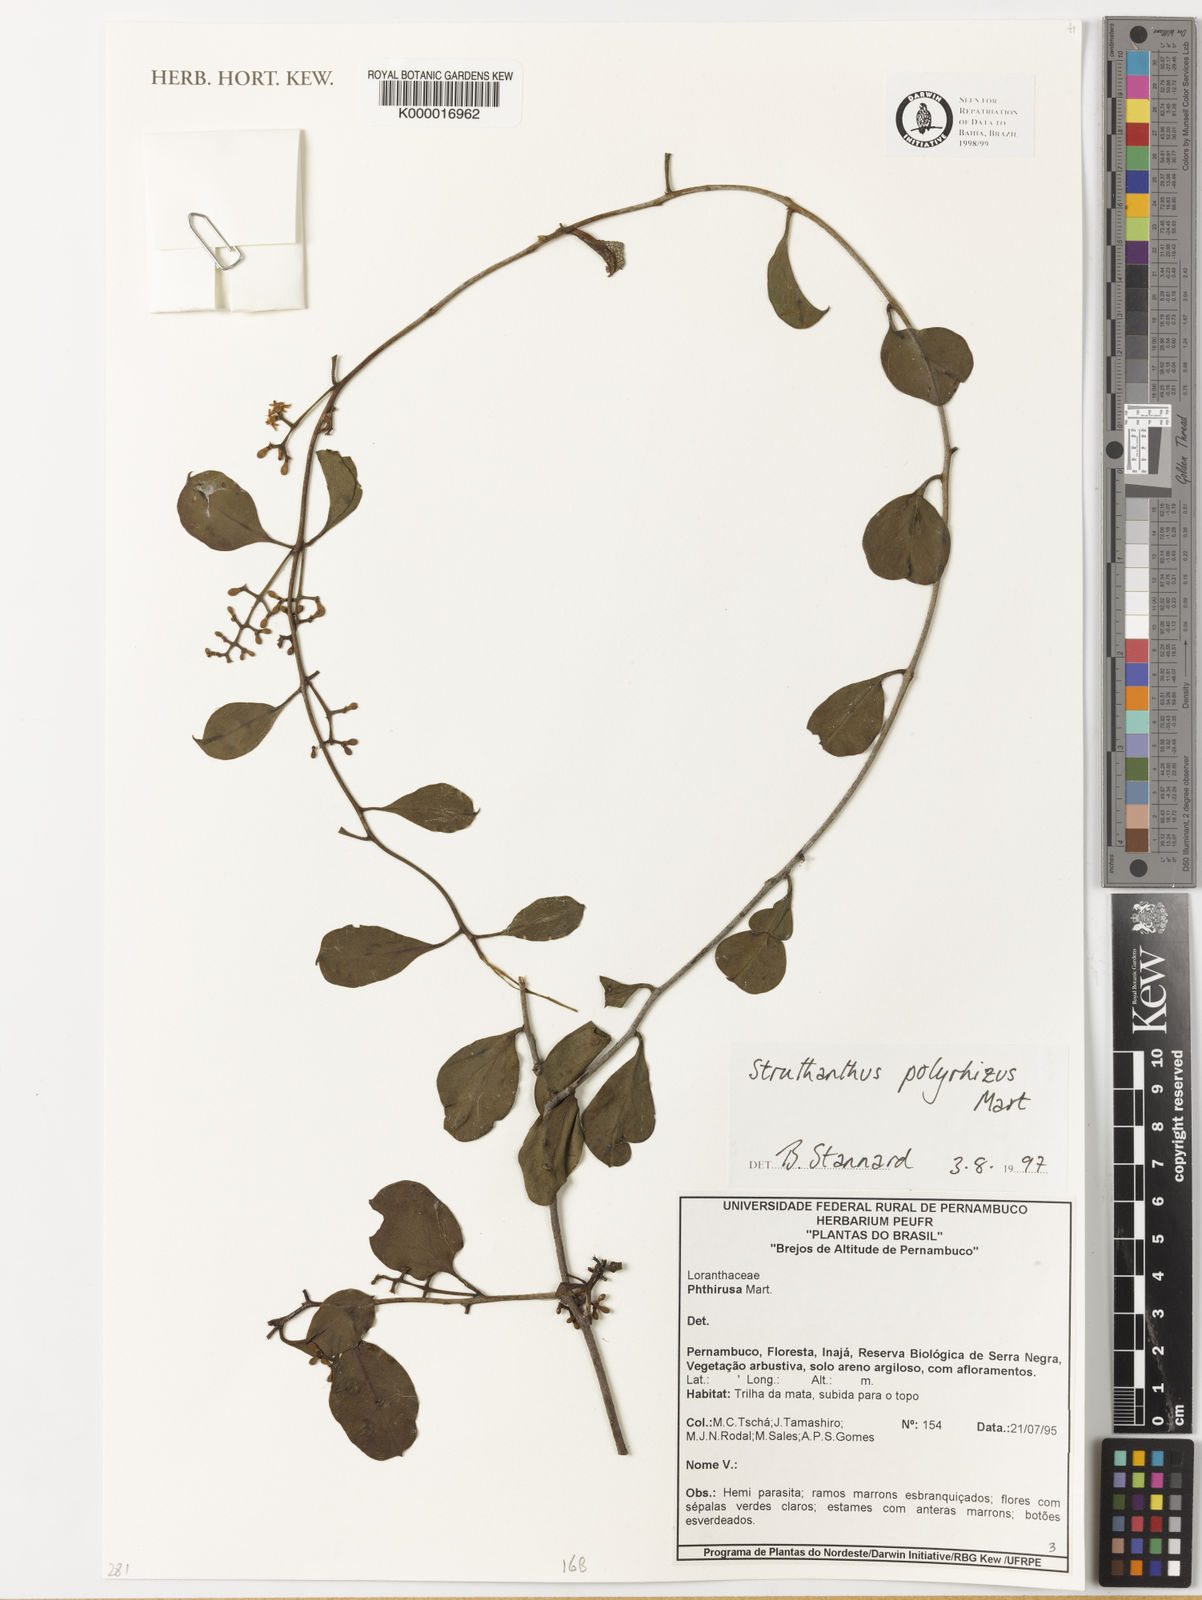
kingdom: Plantae
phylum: Tracheophyta
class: Magnoliopsida
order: Santalales
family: Loranthaceae
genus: Struthanthus
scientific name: Struthanthus retusus
